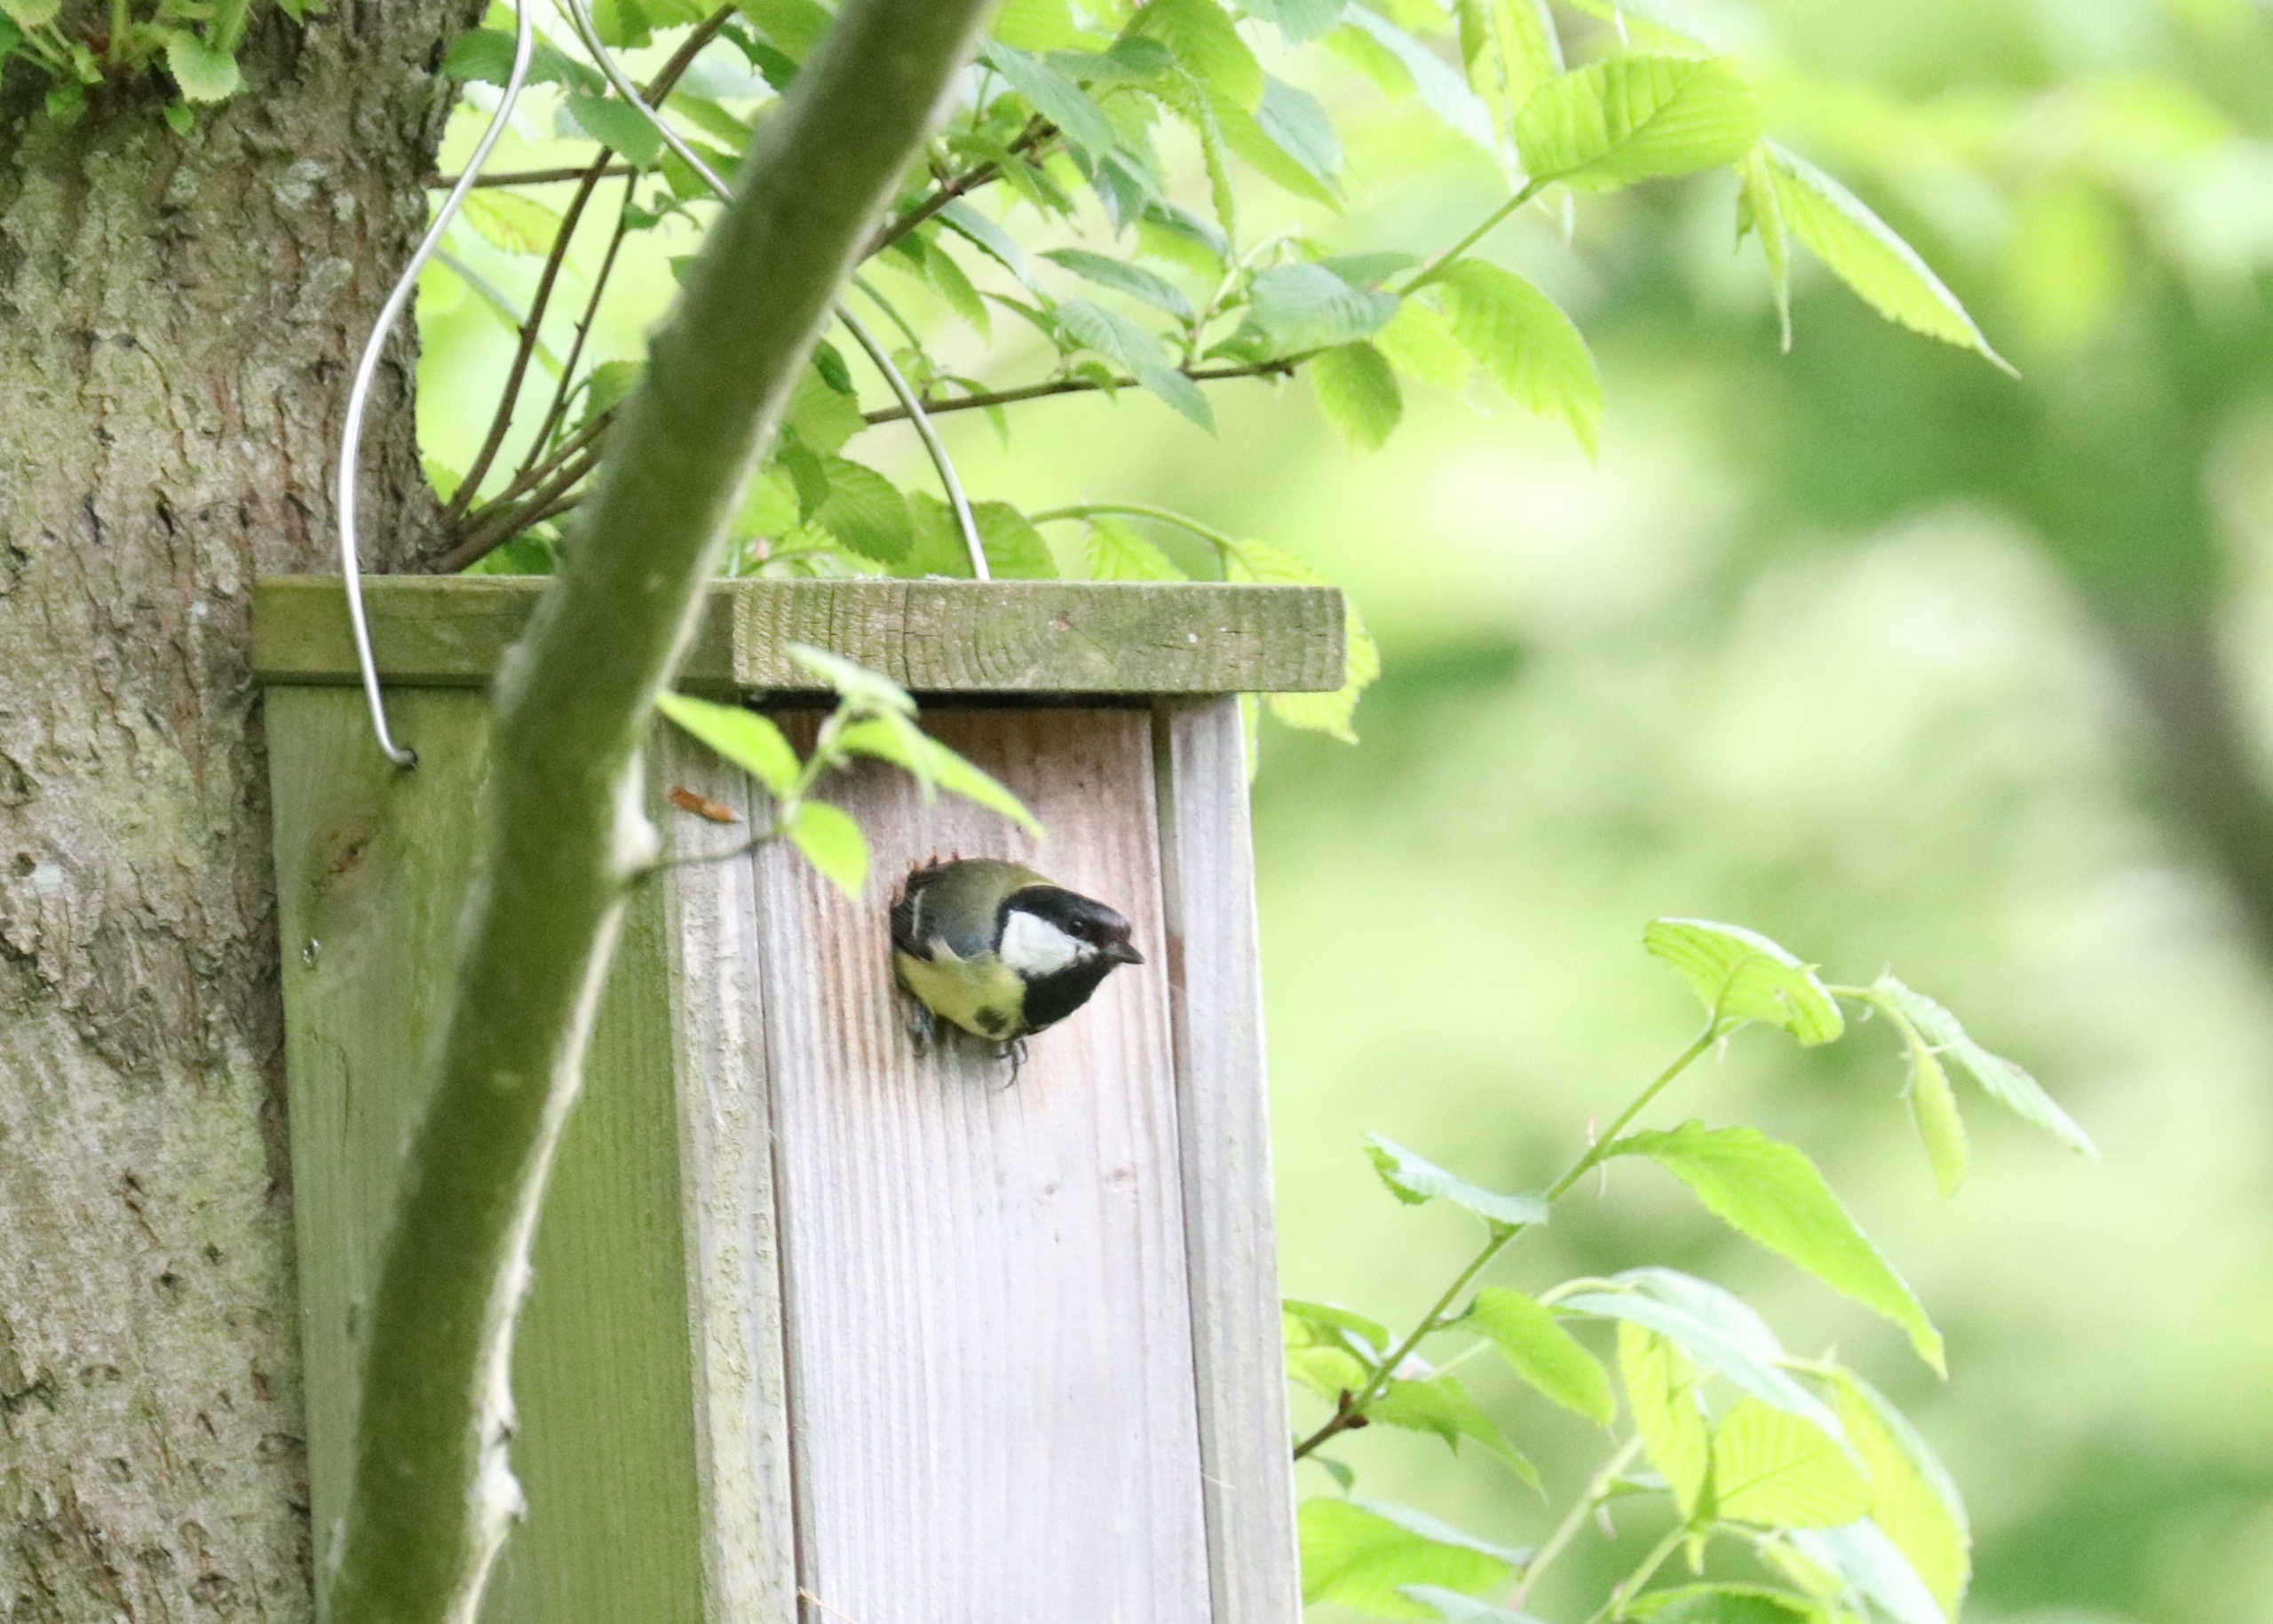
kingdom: Animalia
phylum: Chordata
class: Aves
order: Passeriformes
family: Paridae
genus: Parus
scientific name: Parus major
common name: Musvit
